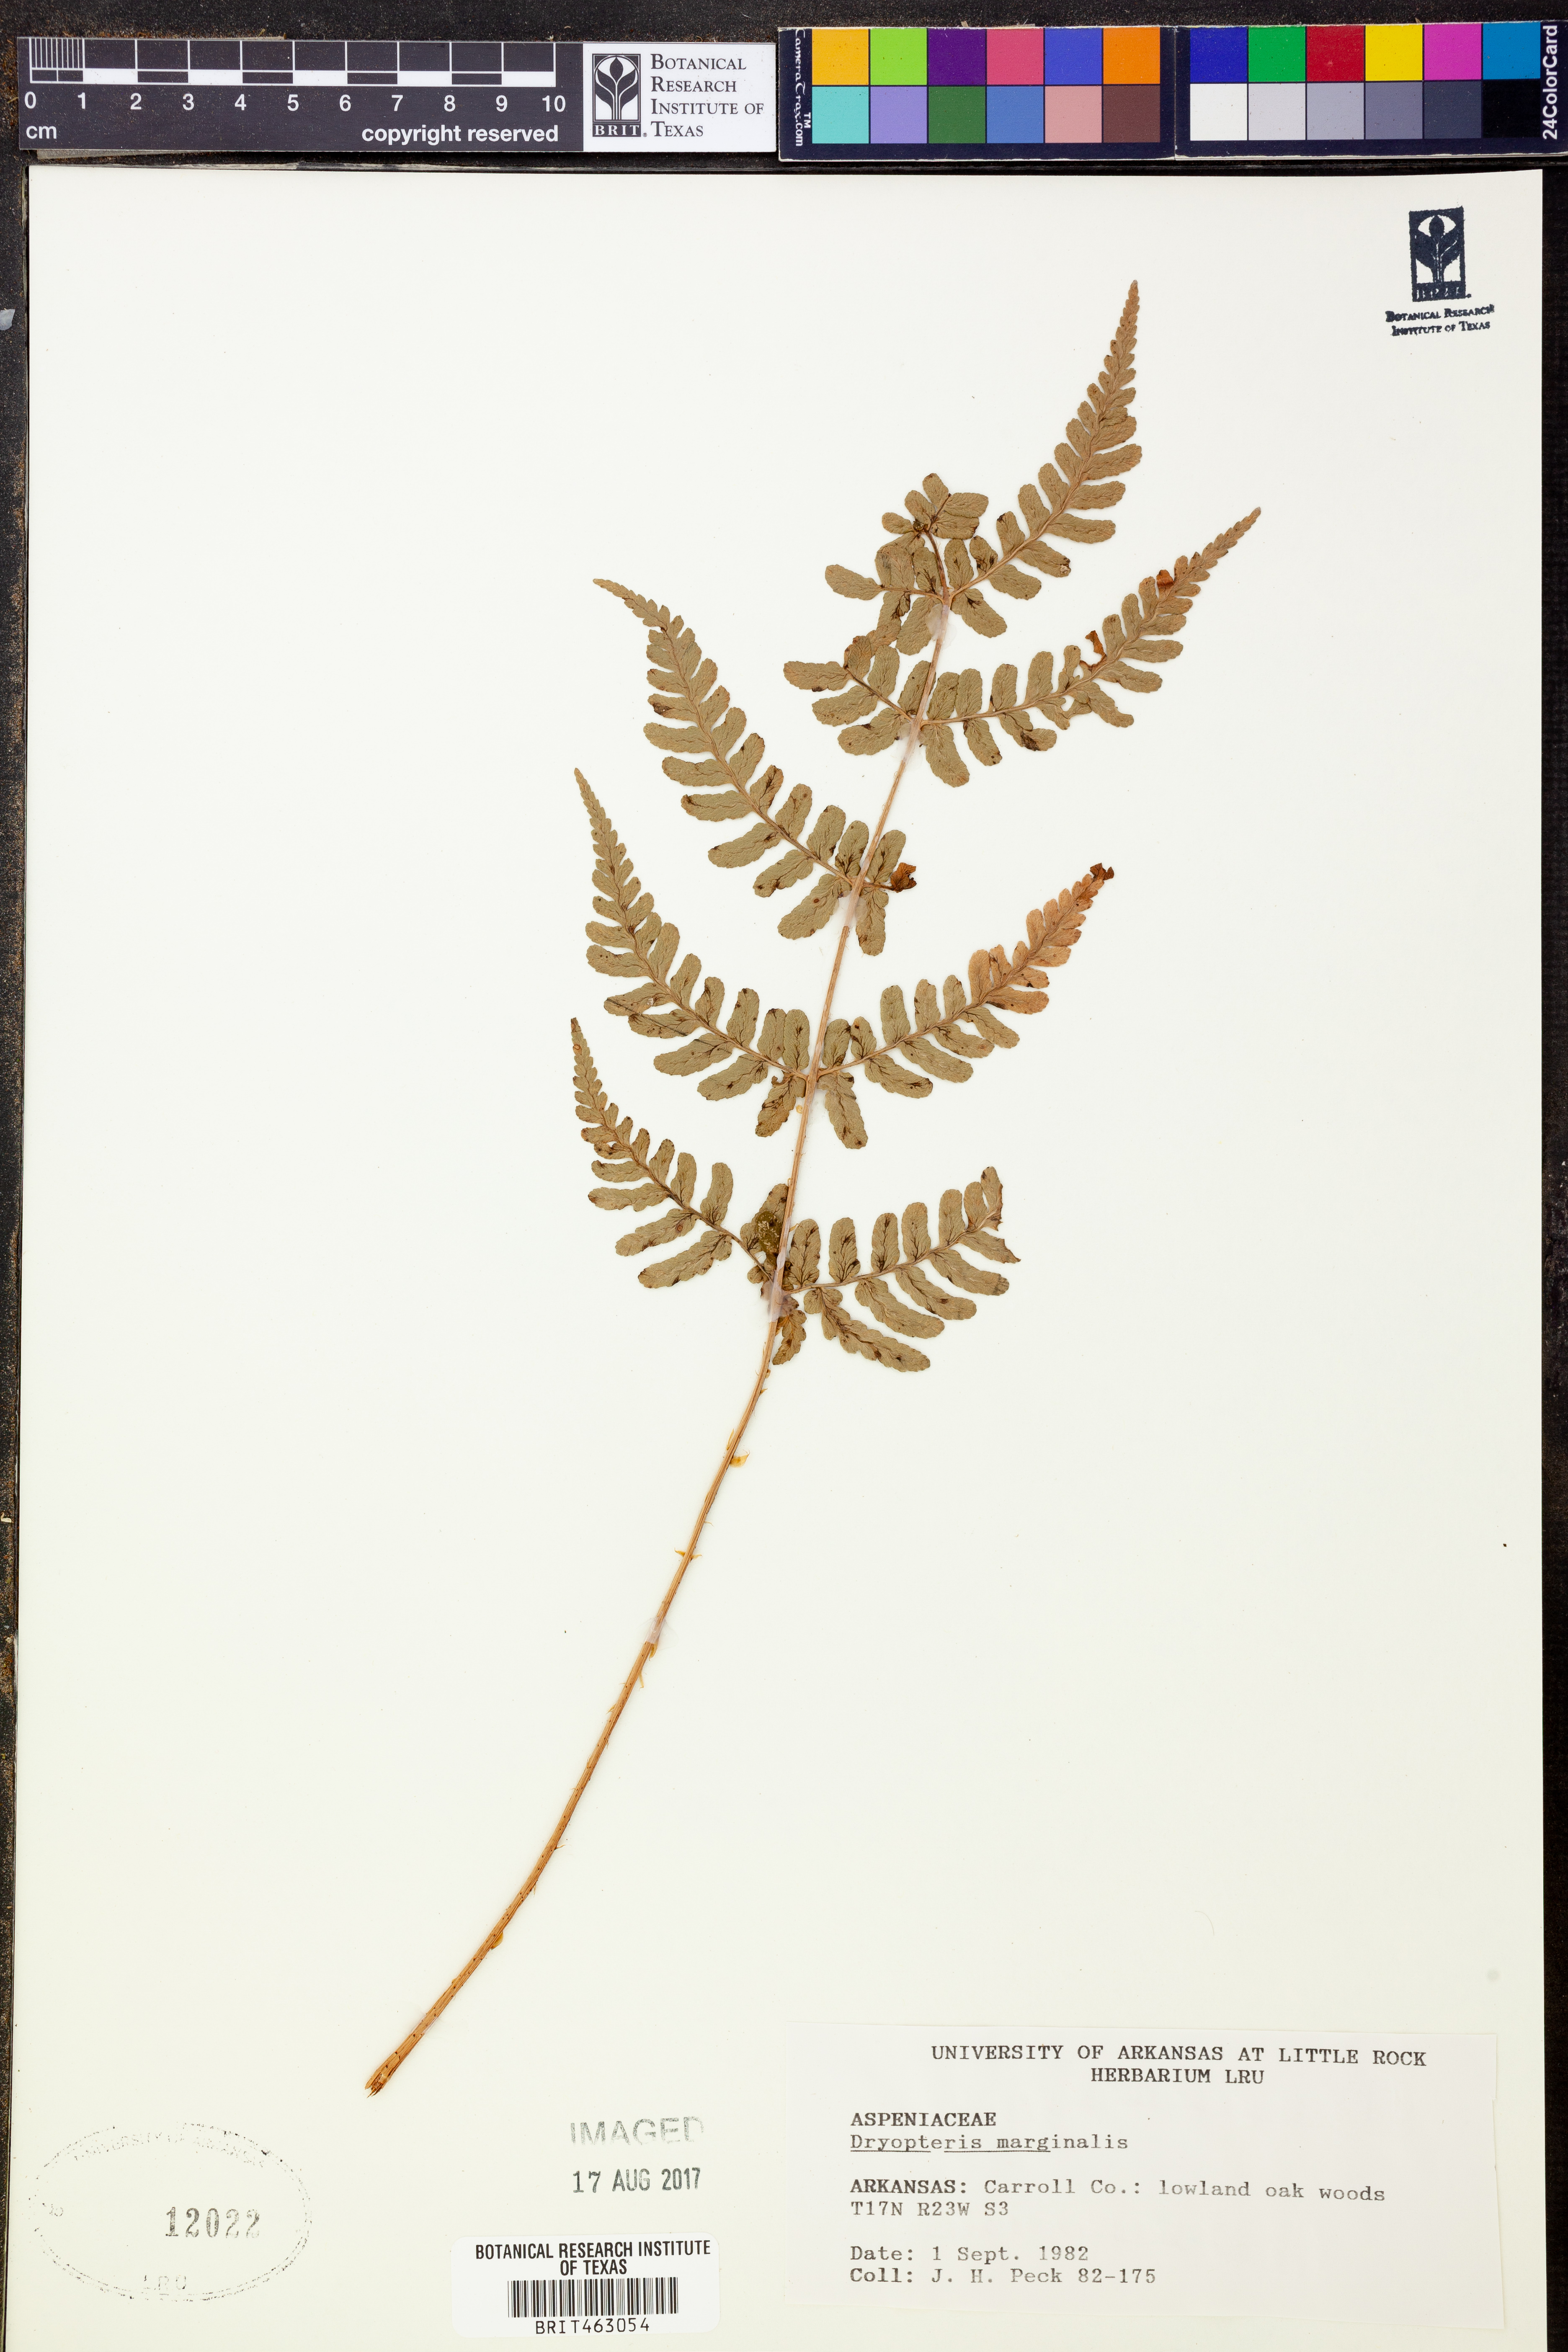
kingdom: Plantae
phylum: Tracheophyta
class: Polypodiopsida
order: Polypodiales
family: Dryopteridaceae
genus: Dryopteris
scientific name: Dryopteris marginalis
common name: Marginal wood fern
